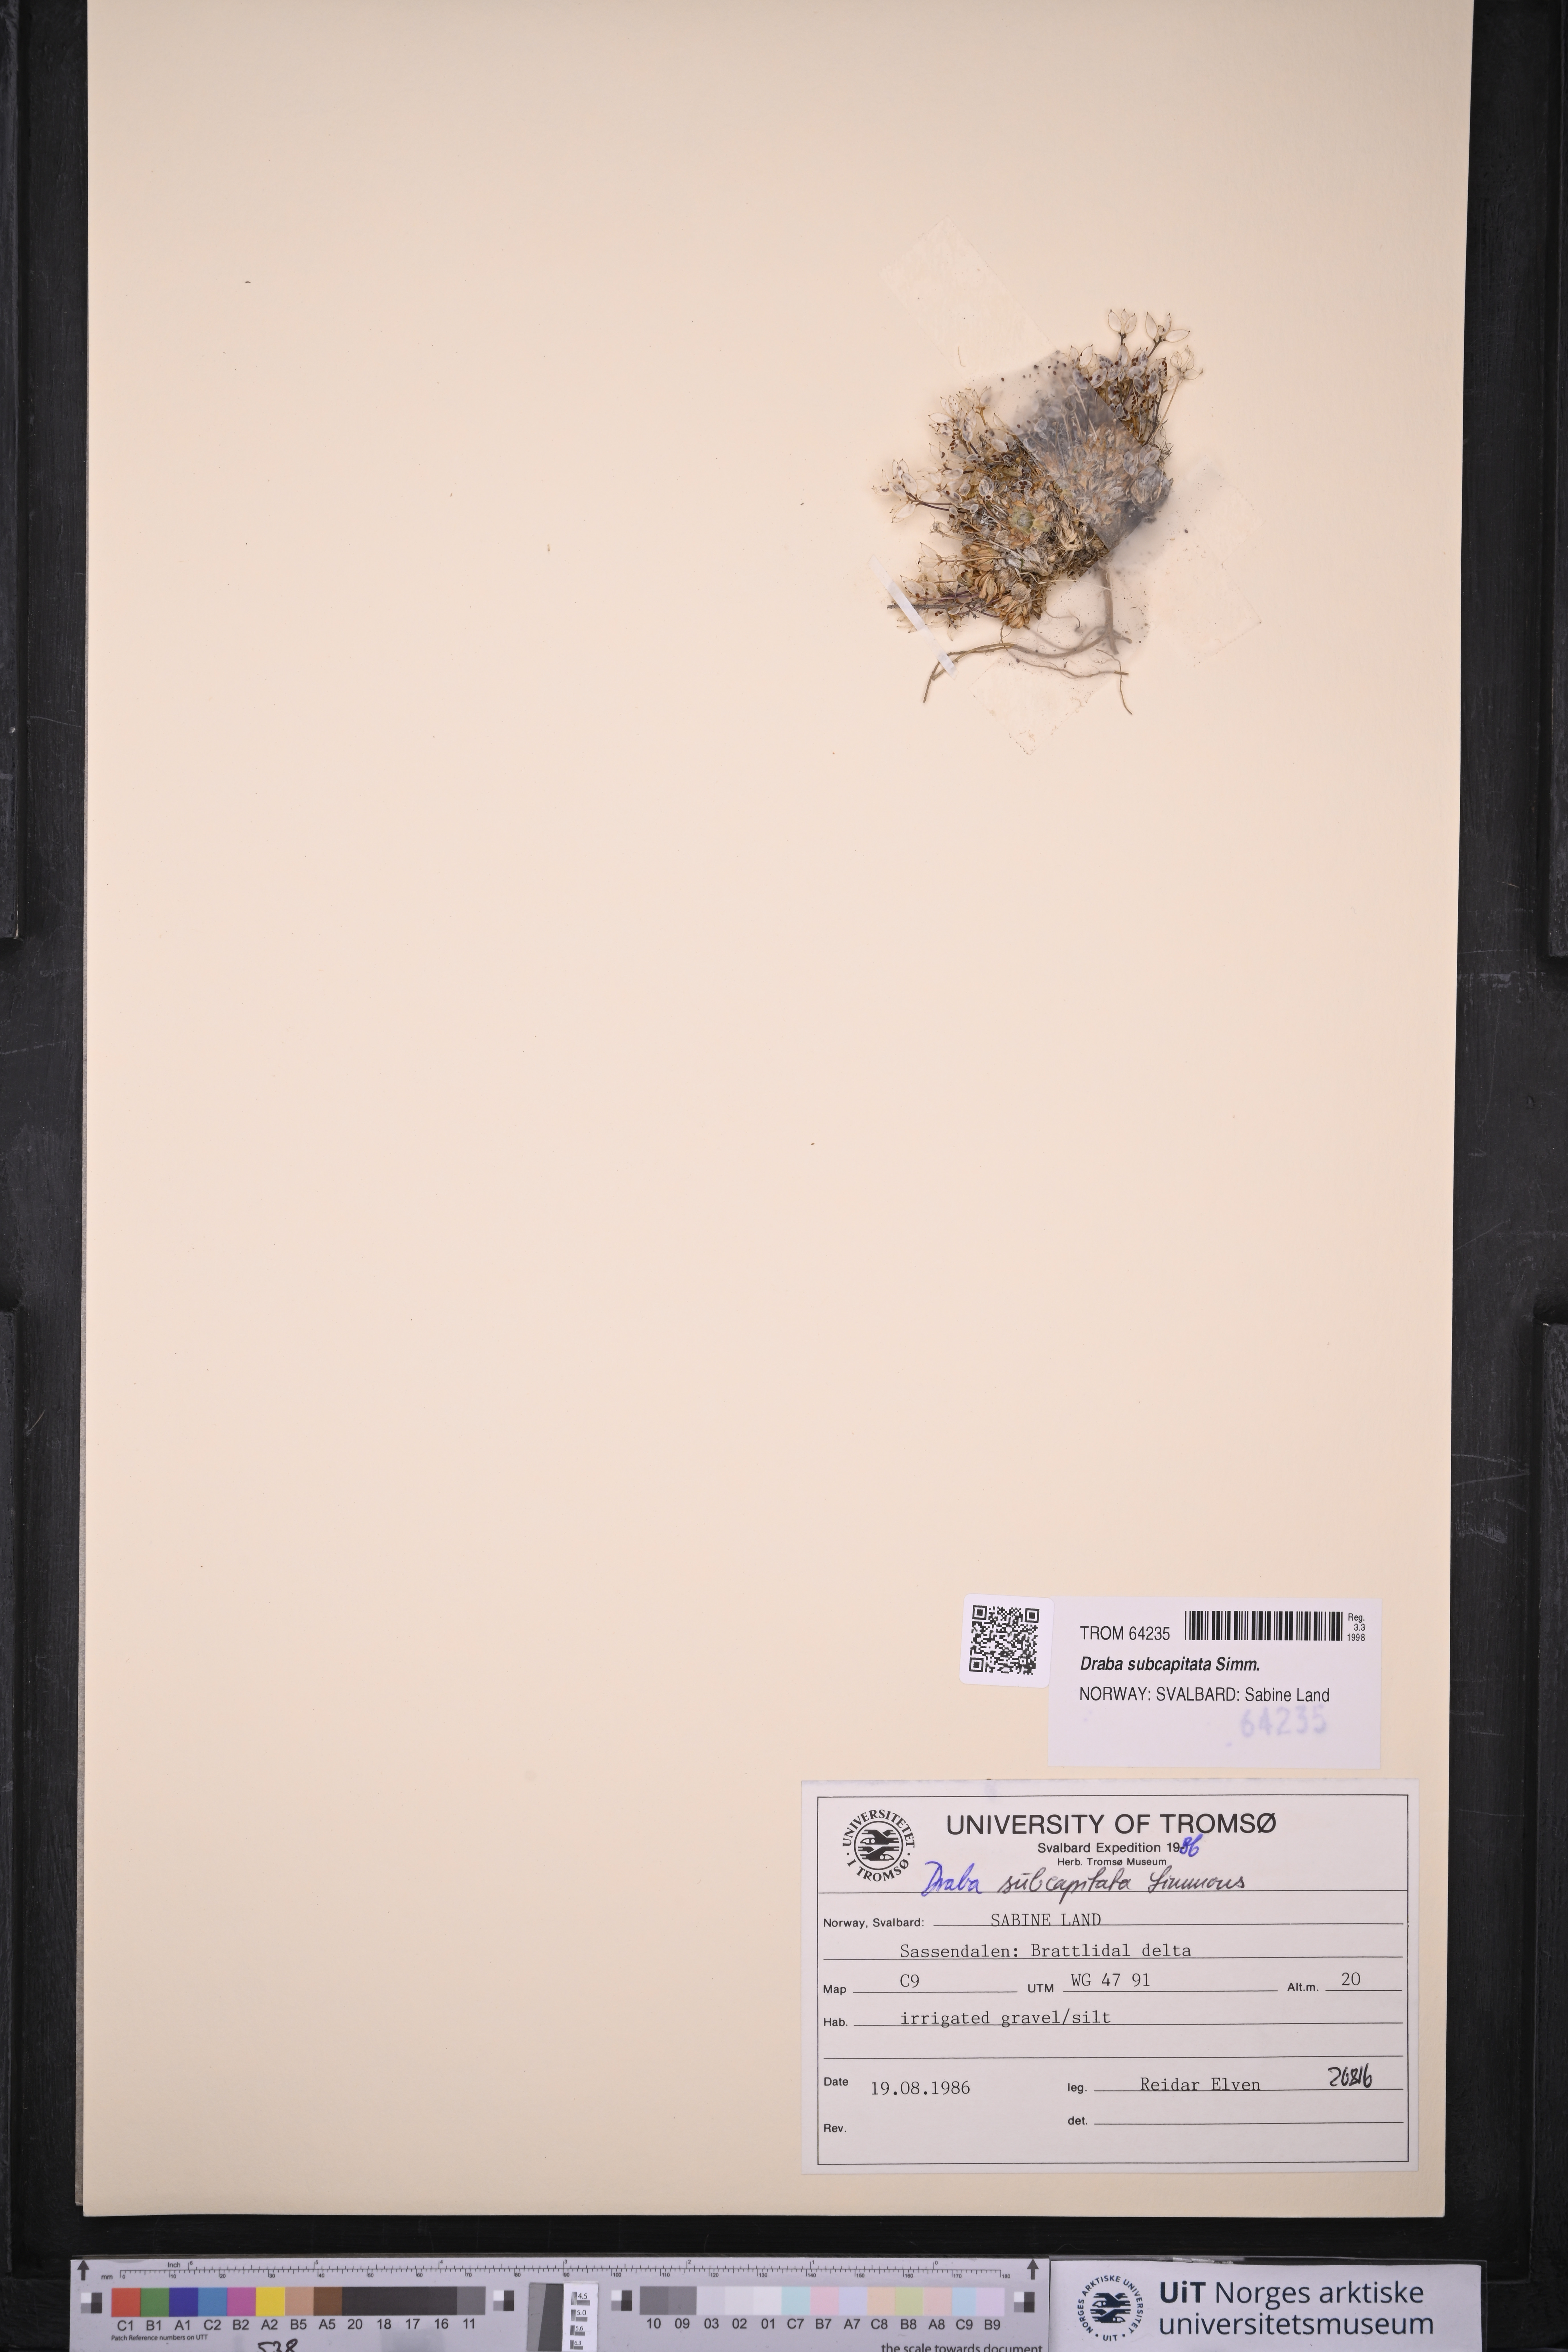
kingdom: Plantae
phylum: Tracheophyta
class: Magnoliopsida
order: Brassicales
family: Brassicaceae
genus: Draba
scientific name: Draba subcapitata
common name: Ellesmere island draba
